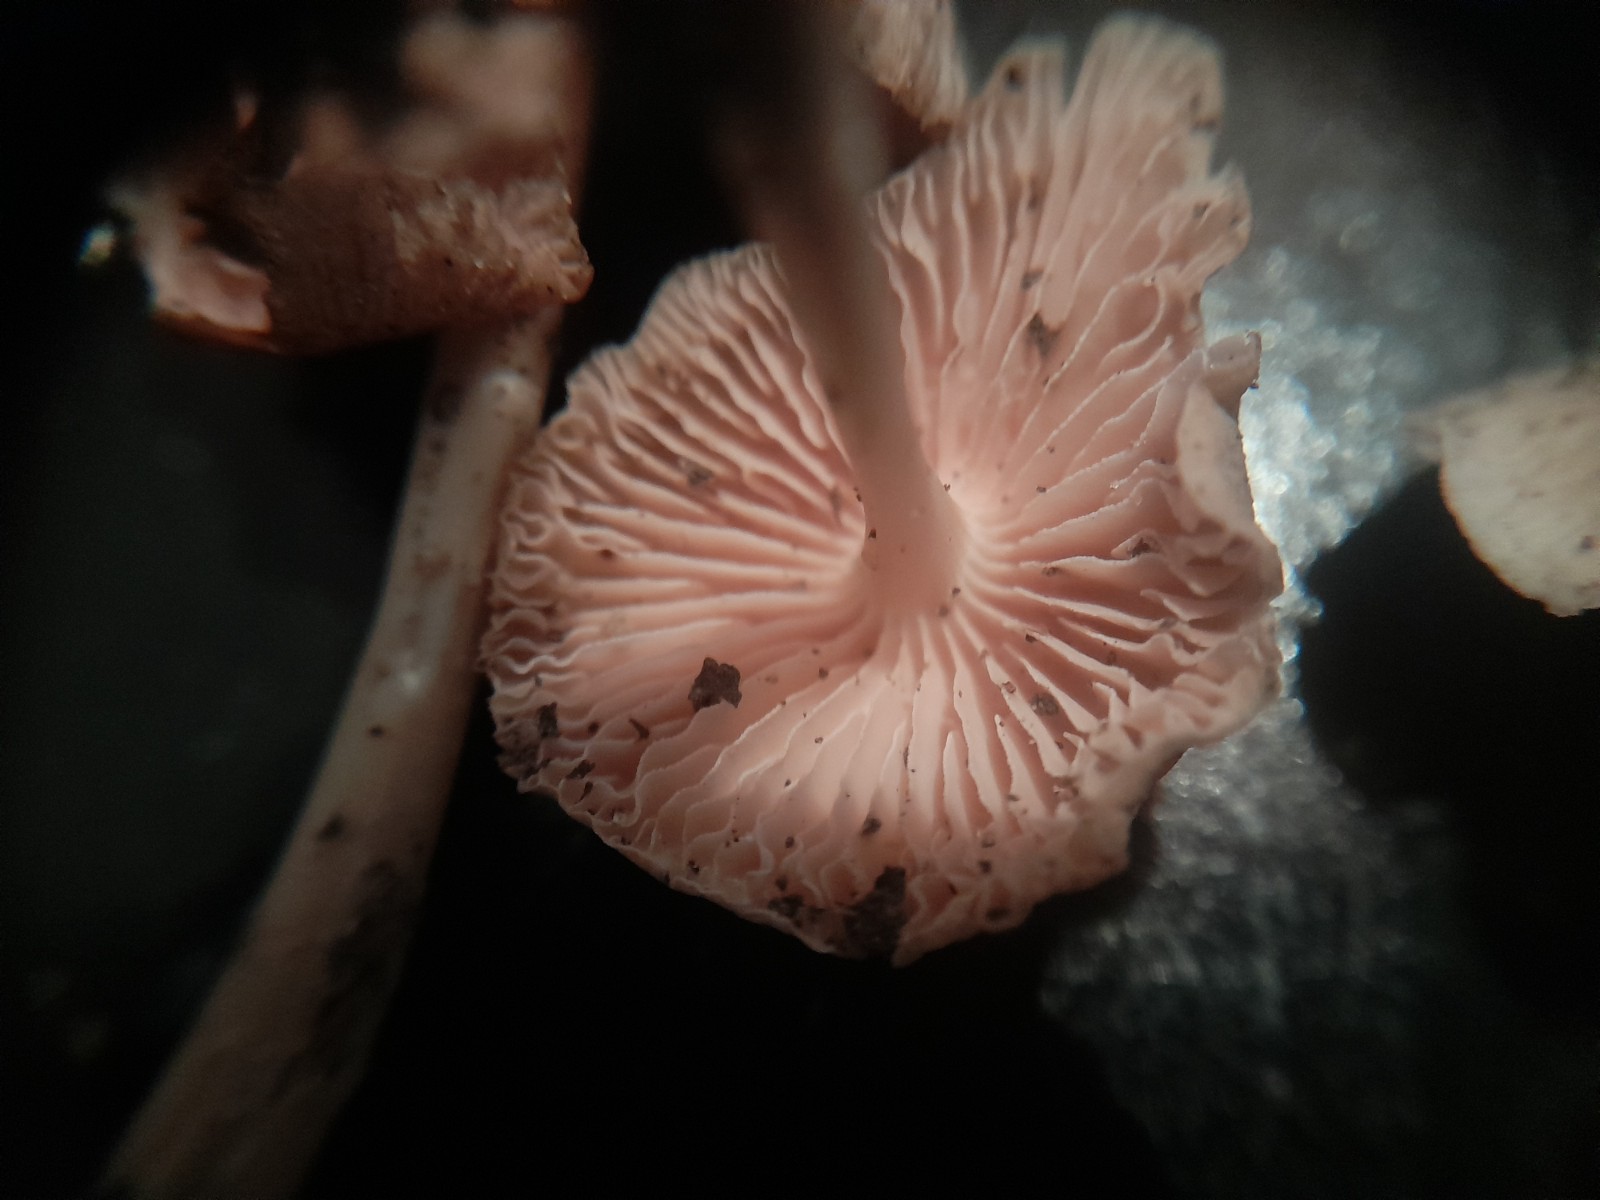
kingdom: Fungi
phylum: Basidiomycota
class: Agaricomycetes
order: Agaricales
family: Mycenaceae
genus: Mycena
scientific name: Mycena galericulata
